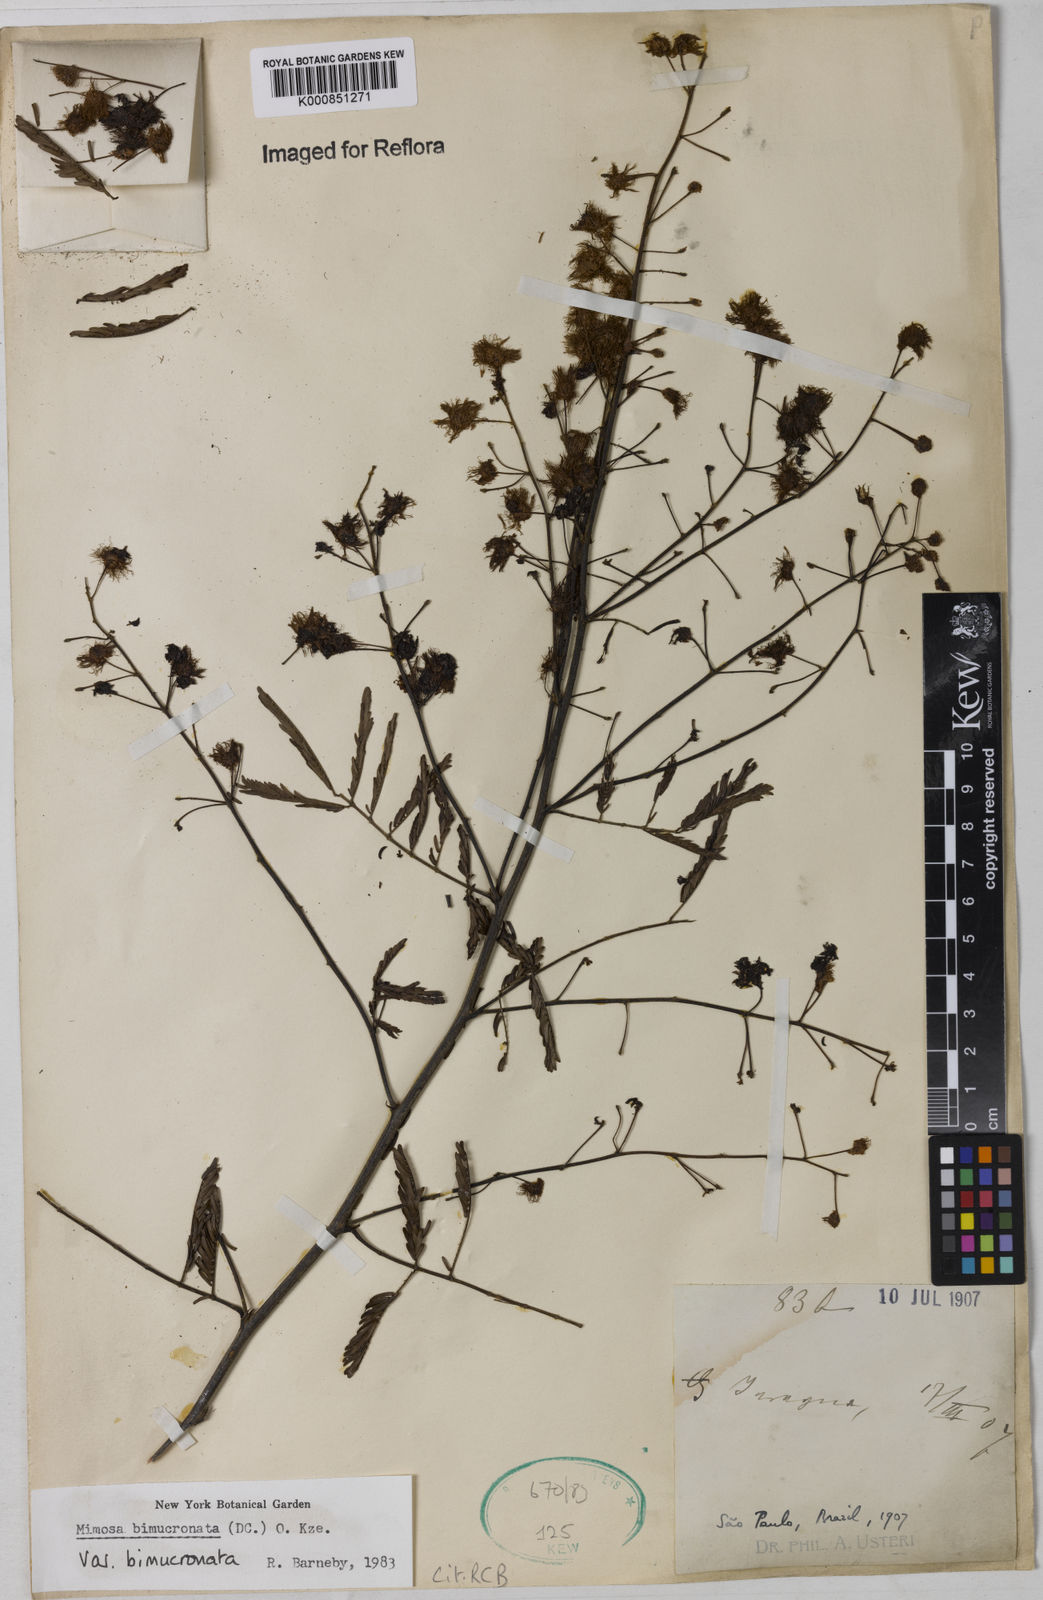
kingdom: Plantae
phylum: Tracheophyta
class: Magnoliopsida
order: Fabales
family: Fabaceae
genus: Mimosa
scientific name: Mimosa bimucronata
